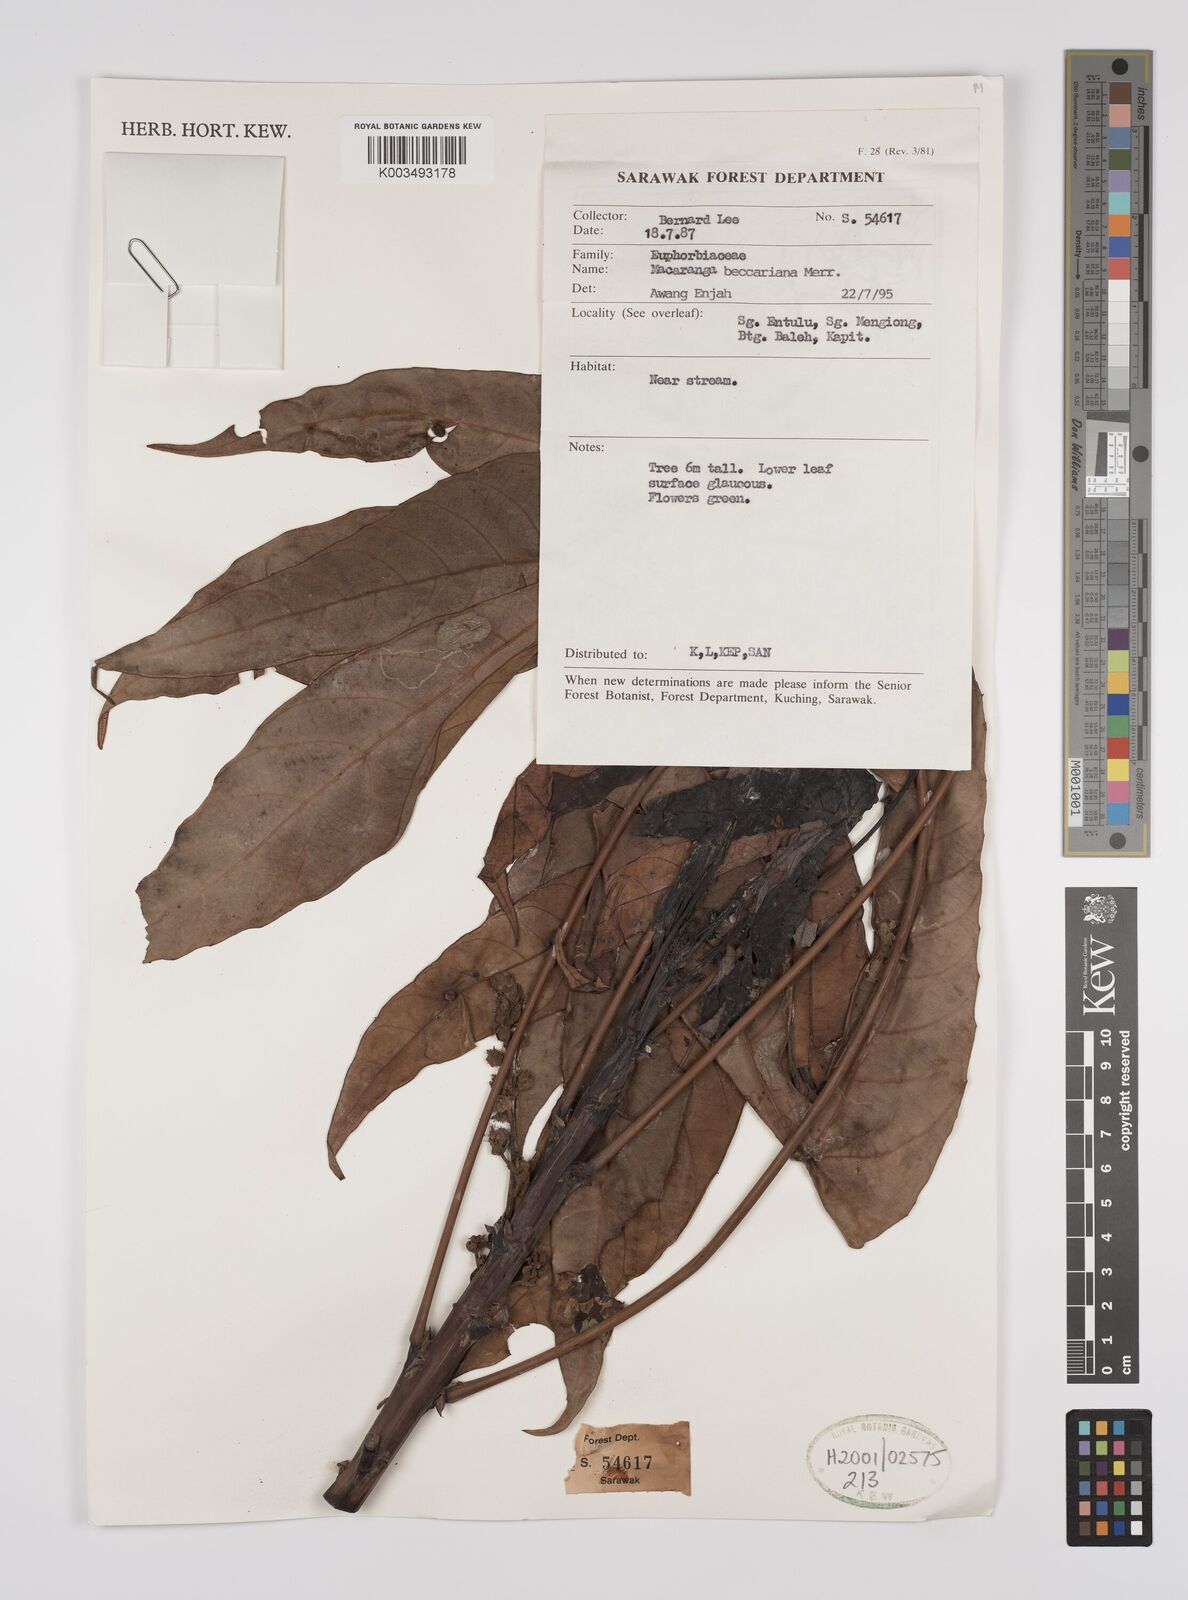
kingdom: Plantae
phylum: Tracheophyta
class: Magnoliopsida
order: Malpighiales
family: Euphorbiaceae
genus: Macaranga
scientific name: Macaranga beccariana
